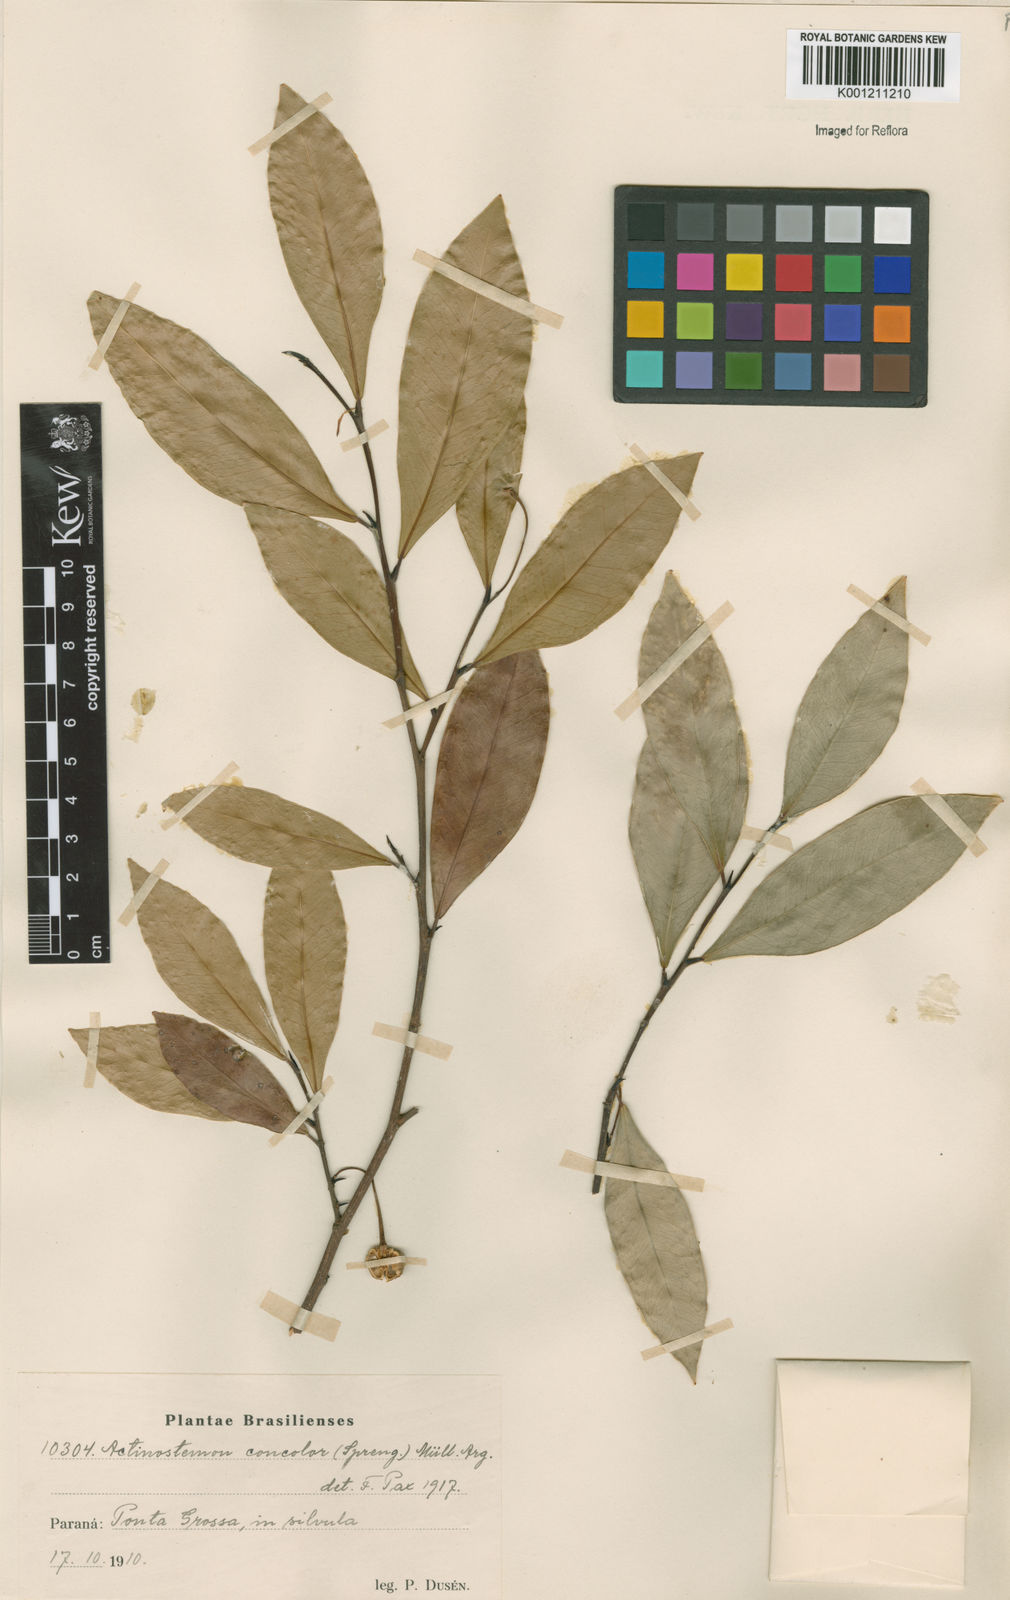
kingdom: Plantae
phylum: Tracheophyta
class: Magnoliopsida
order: Malpighiales
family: Euphorbiaceae
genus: Actinostemon
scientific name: Actinostemon
